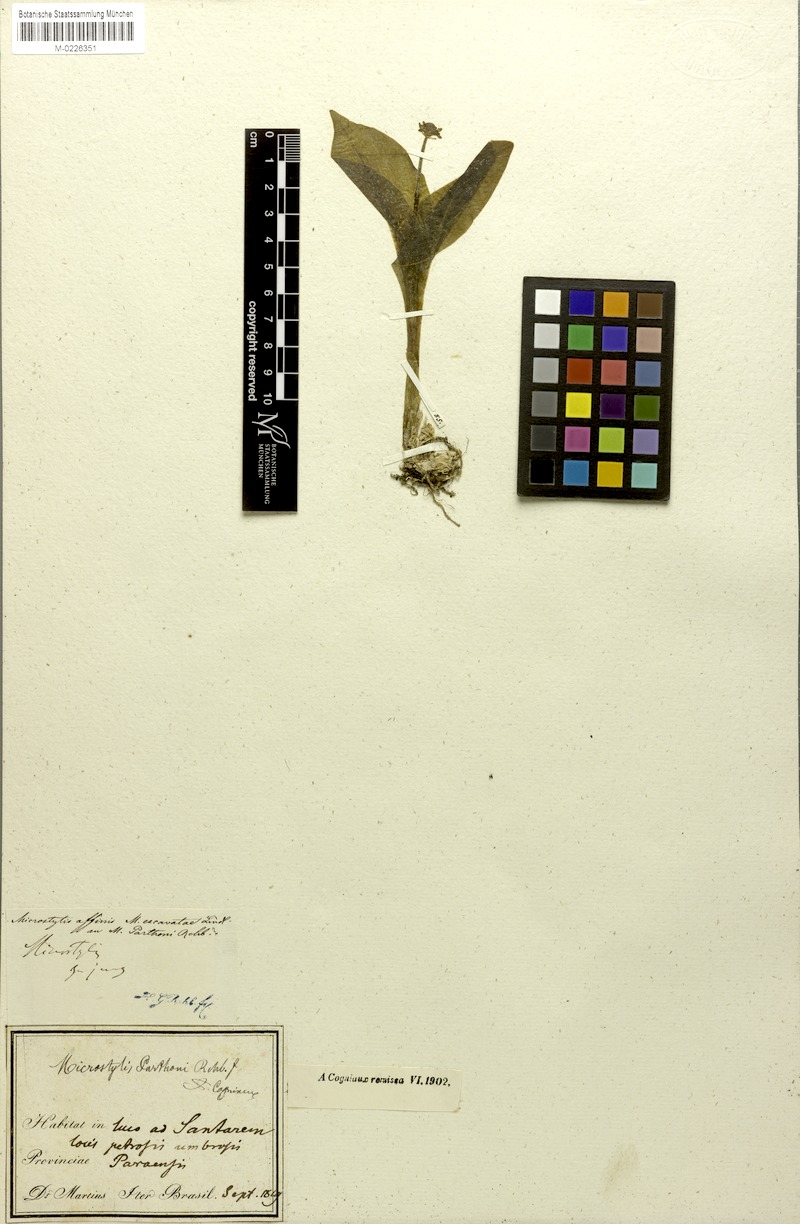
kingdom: Plantae
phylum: Tracheophyta
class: Liliopsida
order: Asparagales
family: Orchidaceae
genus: Malaxis
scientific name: Malaxis parthoni
